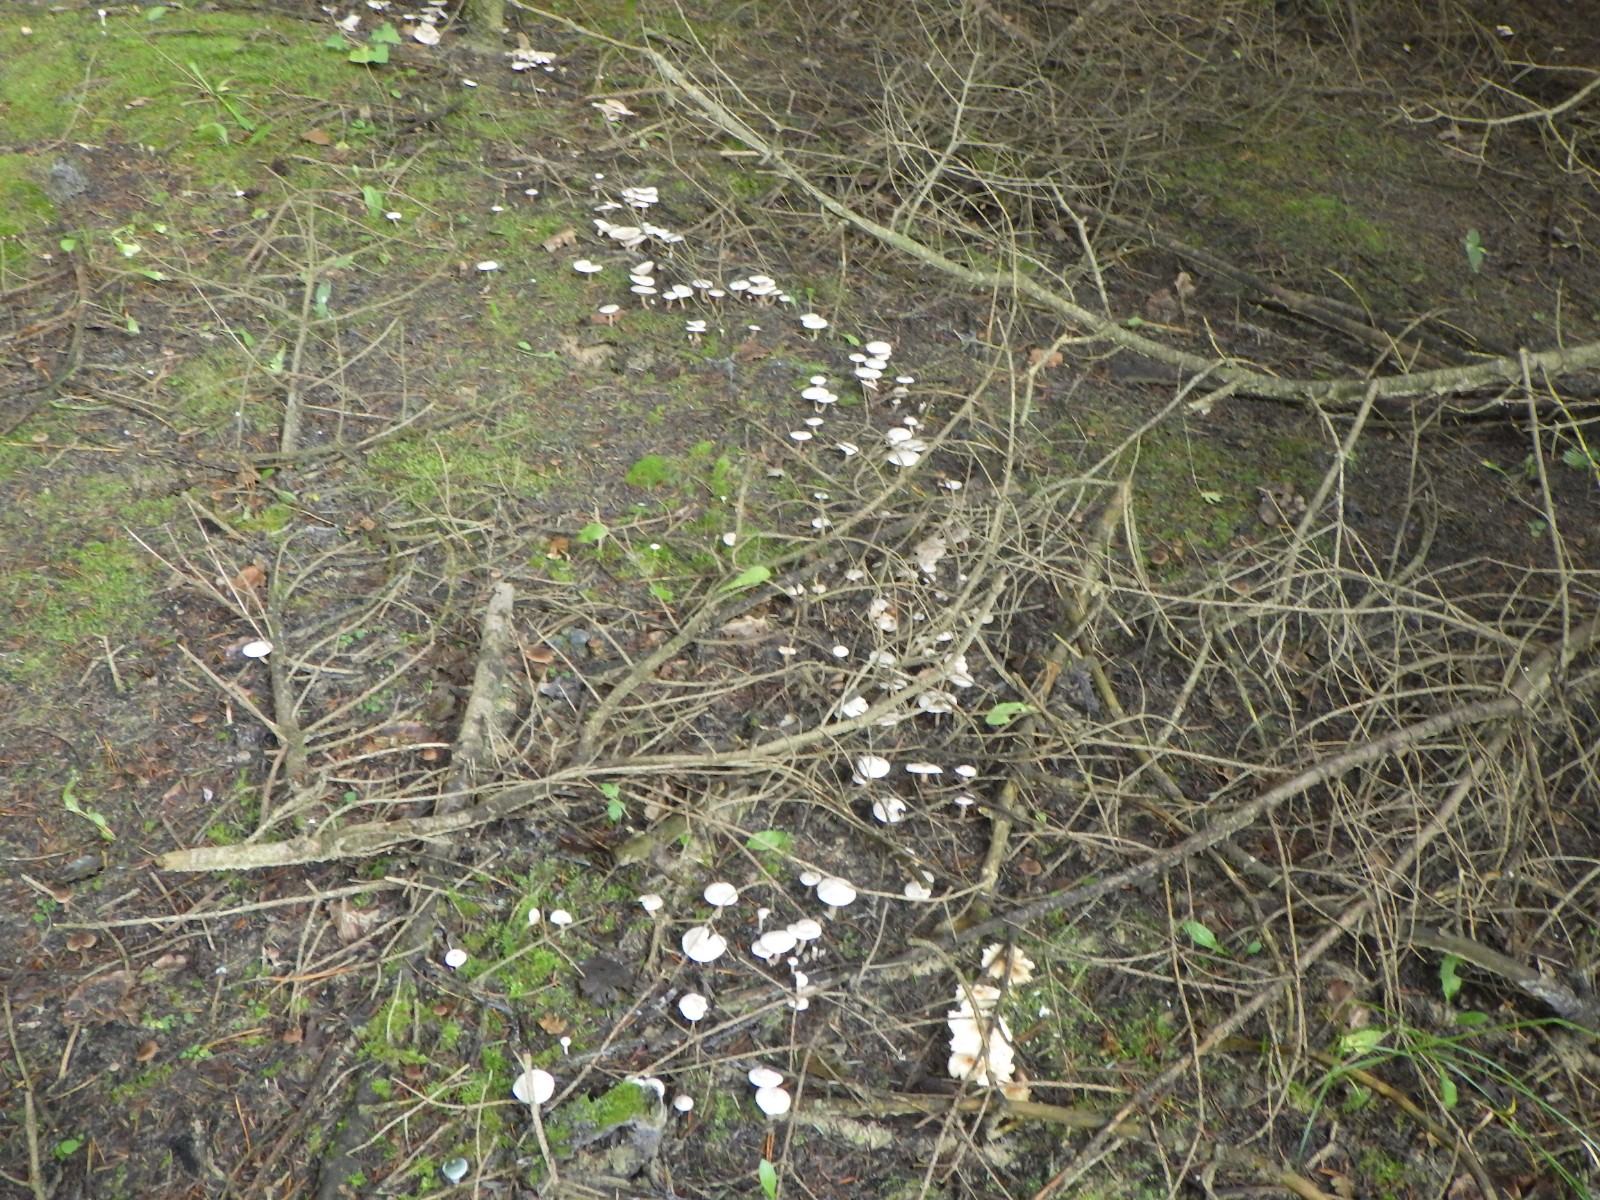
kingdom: Fungi
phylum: Basidiomycota
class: Agaricomycetes
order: Agaricales
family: Tricholomataceae
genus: Leucocybe
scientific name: Leucocybe candicans
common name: kridt-tragthat
